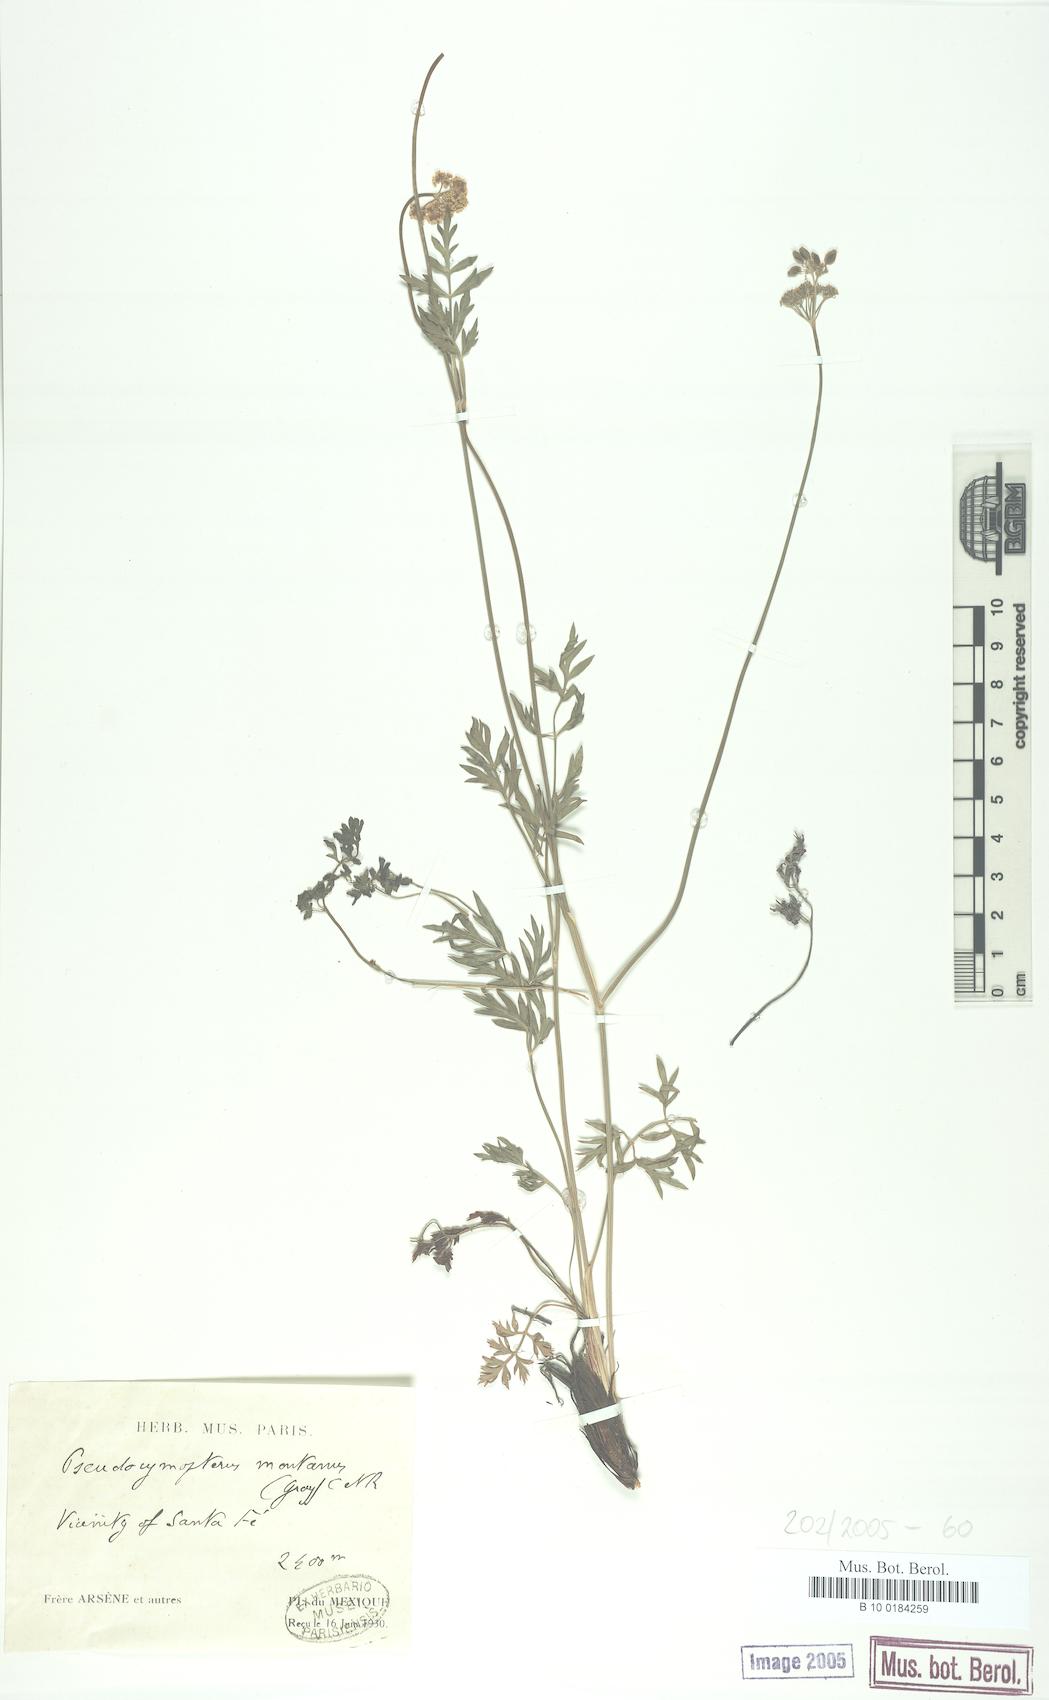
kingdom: Plantae
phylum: Tracheophyta
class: Magnoliopsida
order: Apiales
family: Apiaceae
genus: Cymopterus
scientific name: Cymopterus lemmonii
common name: Lemmon's spring-parsley
